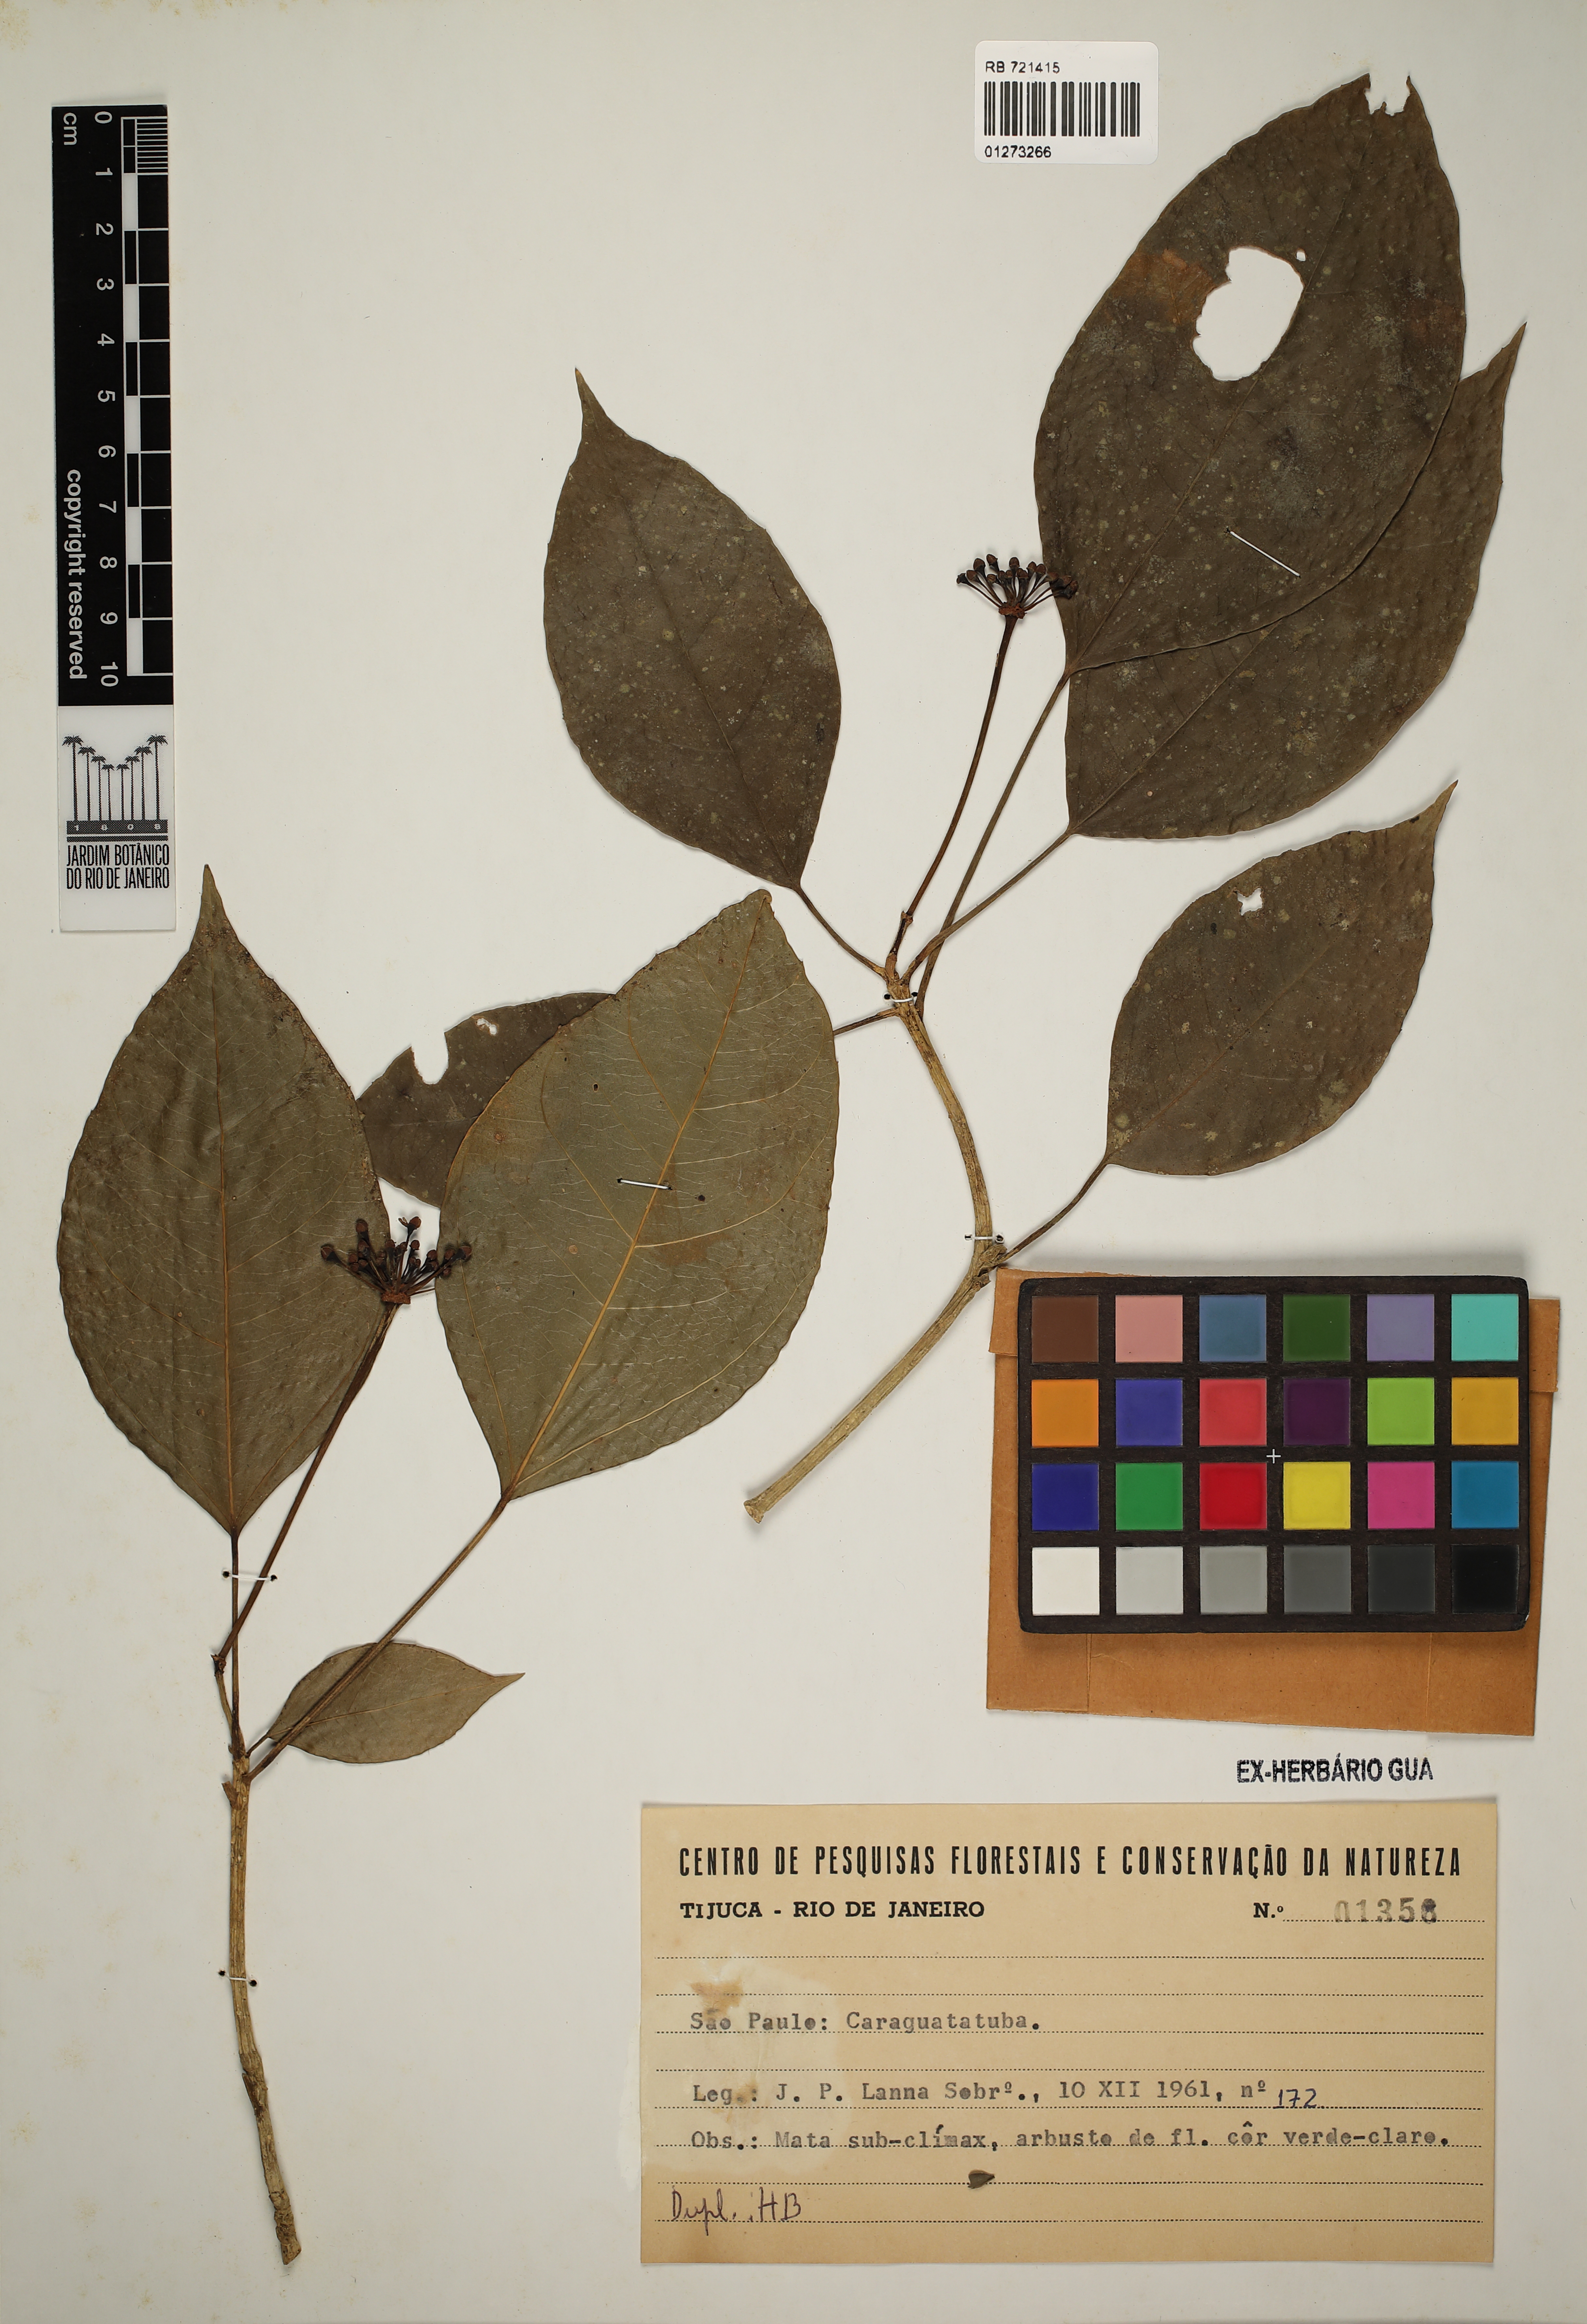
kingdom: Plantae
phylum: Tracheophyta
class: Magnoliopsida
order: Apiales
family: Araliaceae
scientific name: Araliaceae
